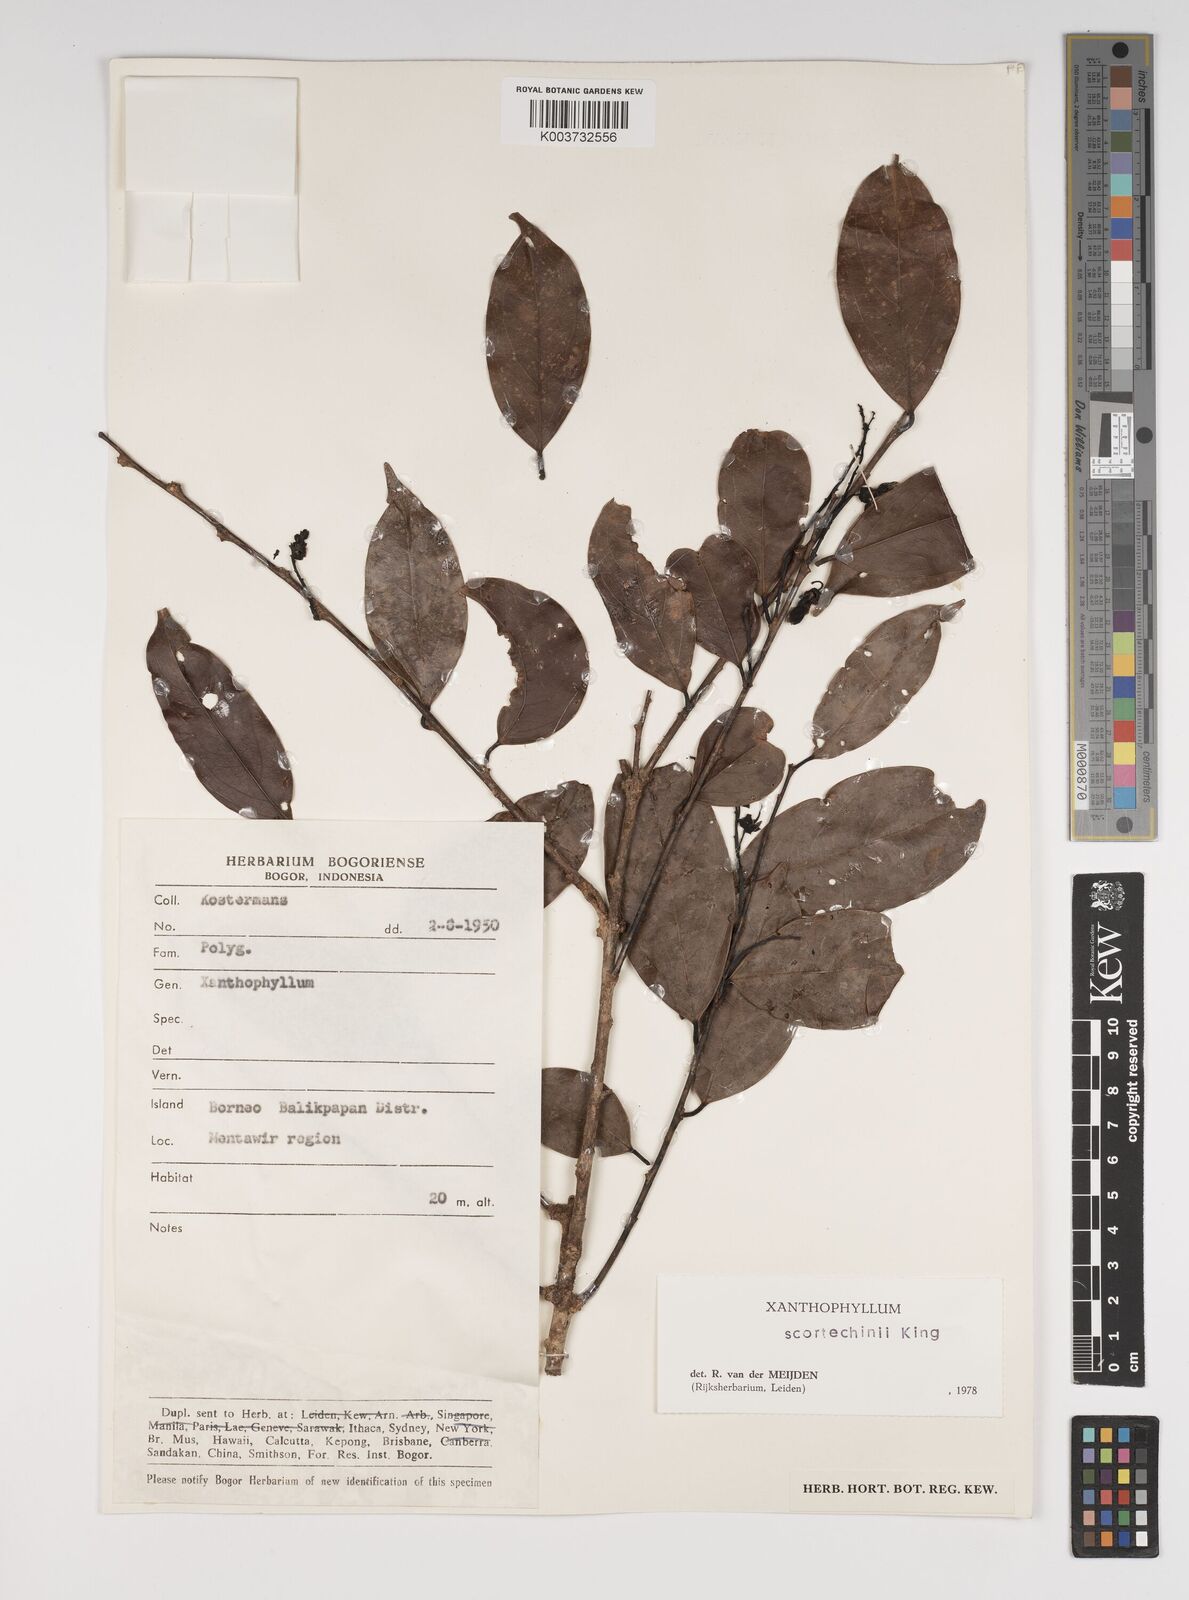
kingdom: Plantae
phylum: Tracheophyta
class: Magnoliopsida
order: Fabales
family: Polygalaceae
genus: Xanthophyllum
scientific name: Xanthophyllum obscurum
